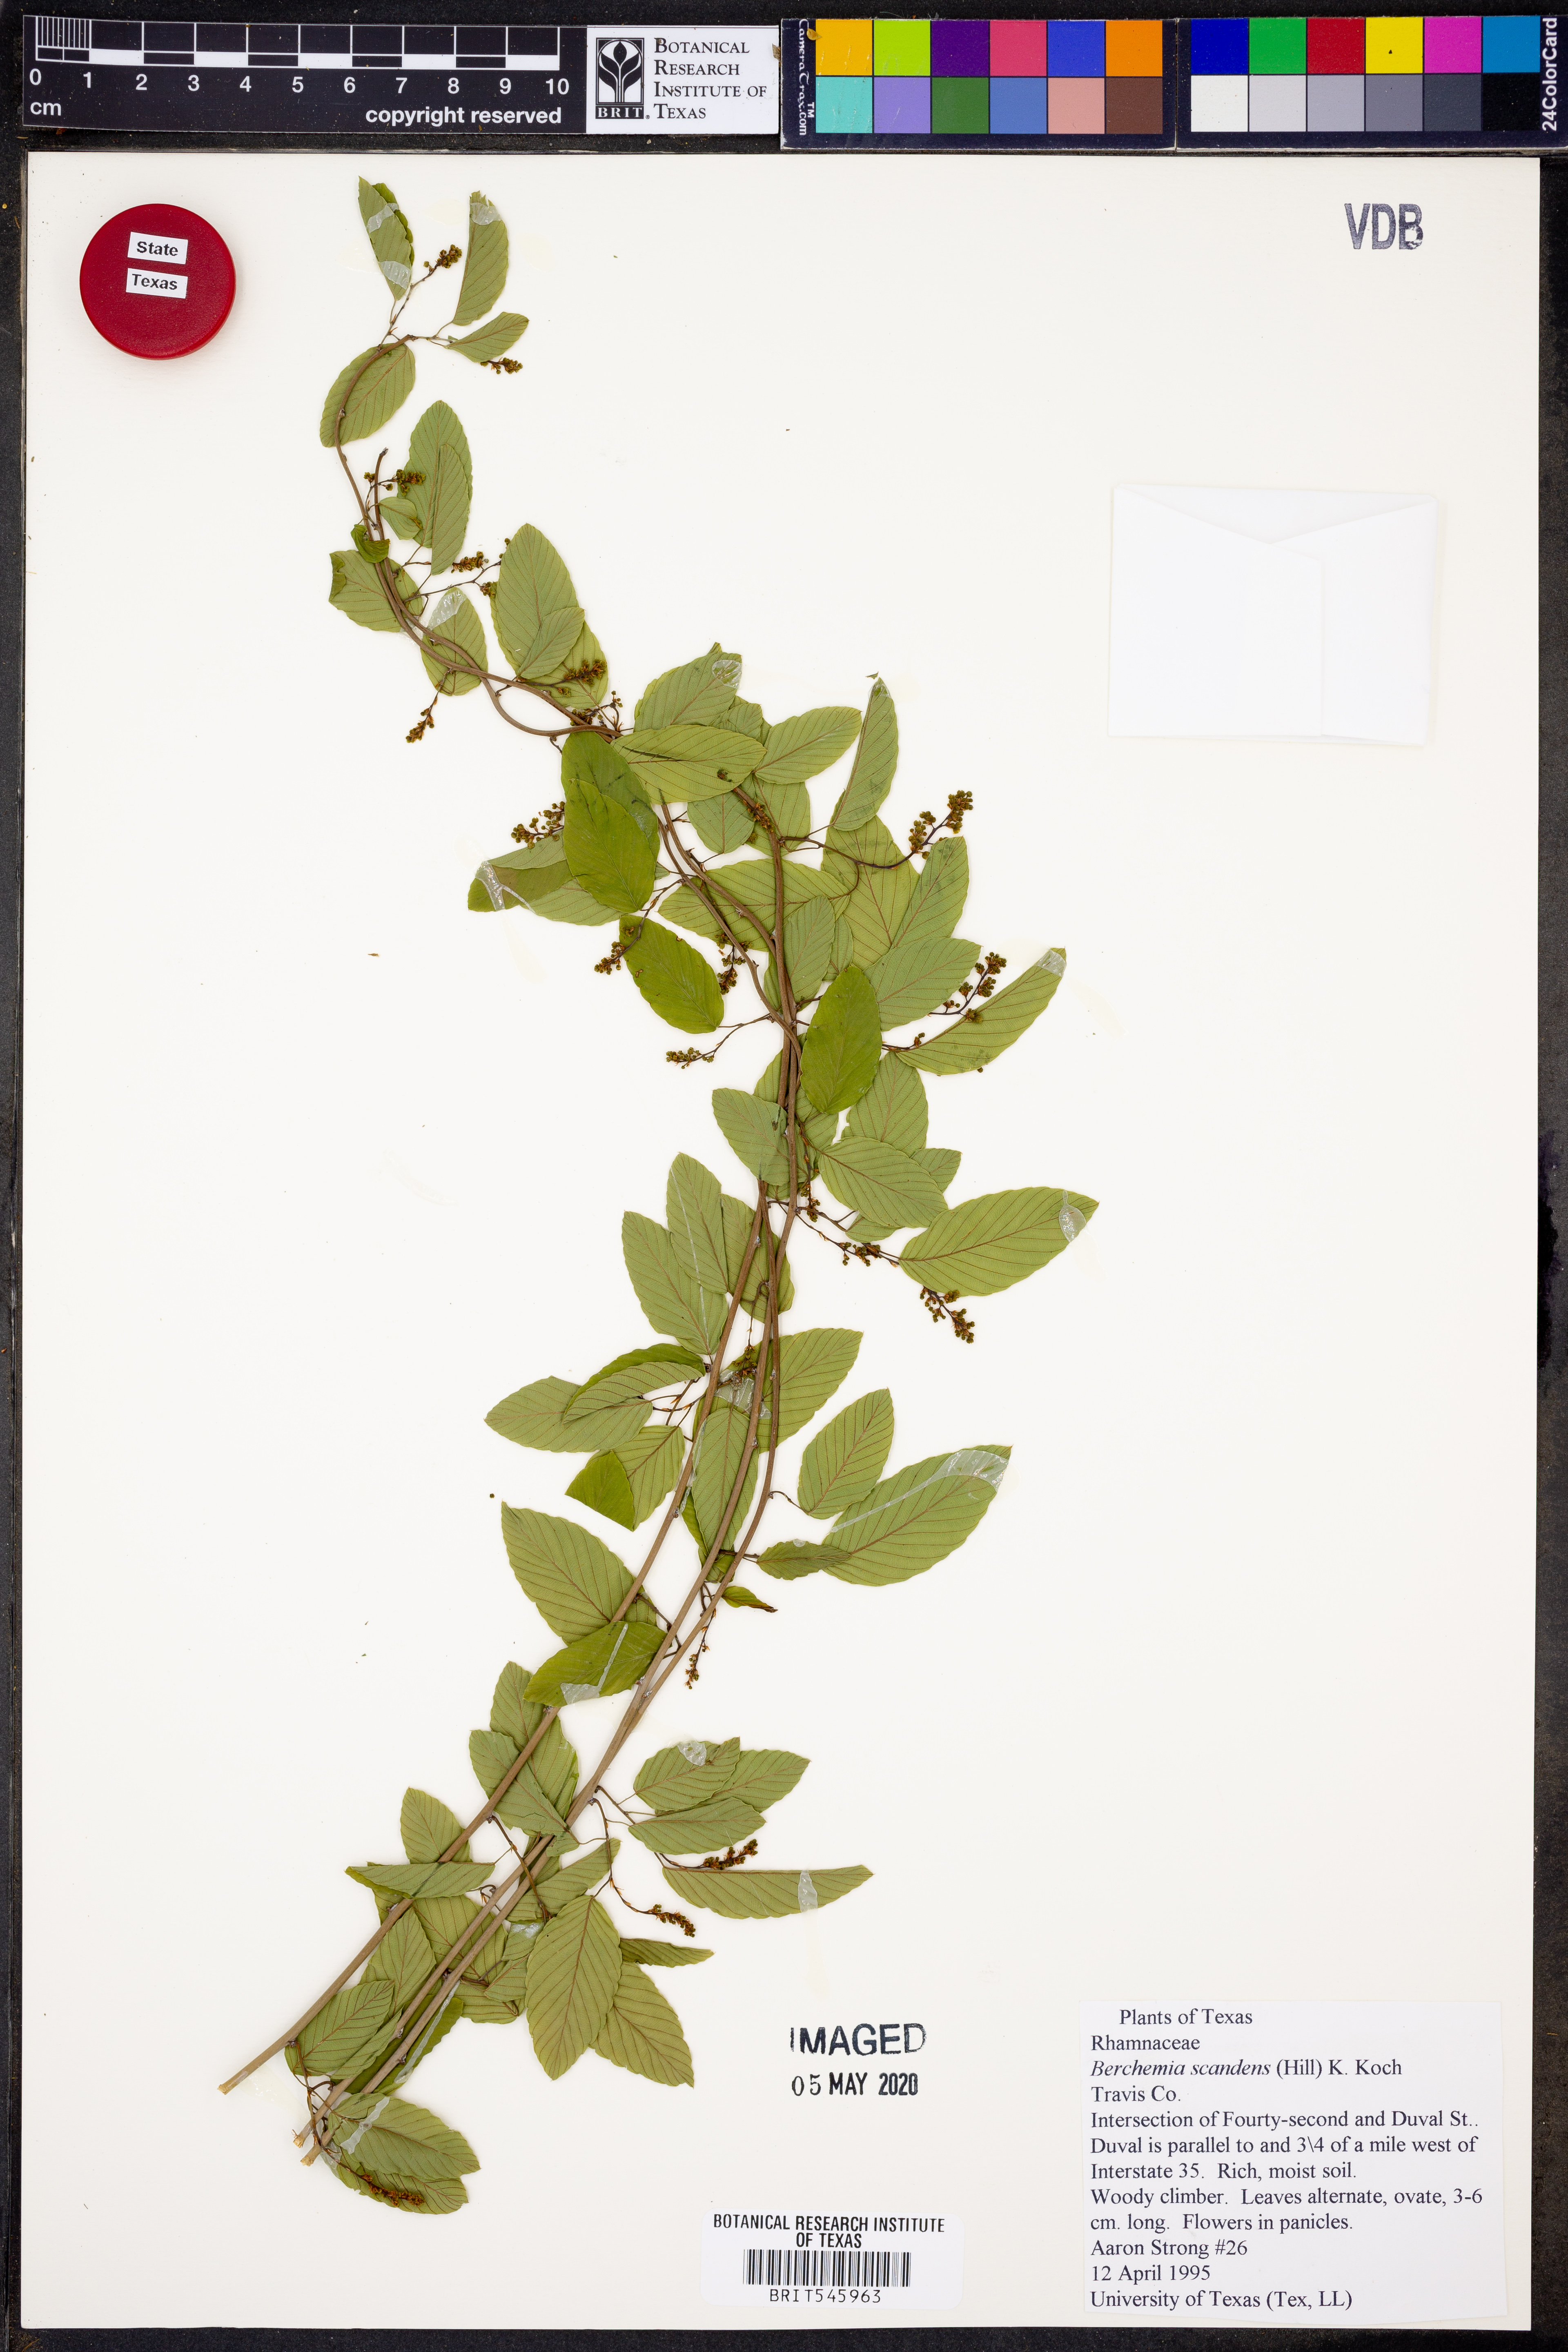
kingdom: Plantae
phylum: Tracheophyta
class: Magnoliopsida
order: Rosales
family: Rhamnaceae
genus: Berchemia
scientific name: Berchemia scandens
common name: Supplejack
